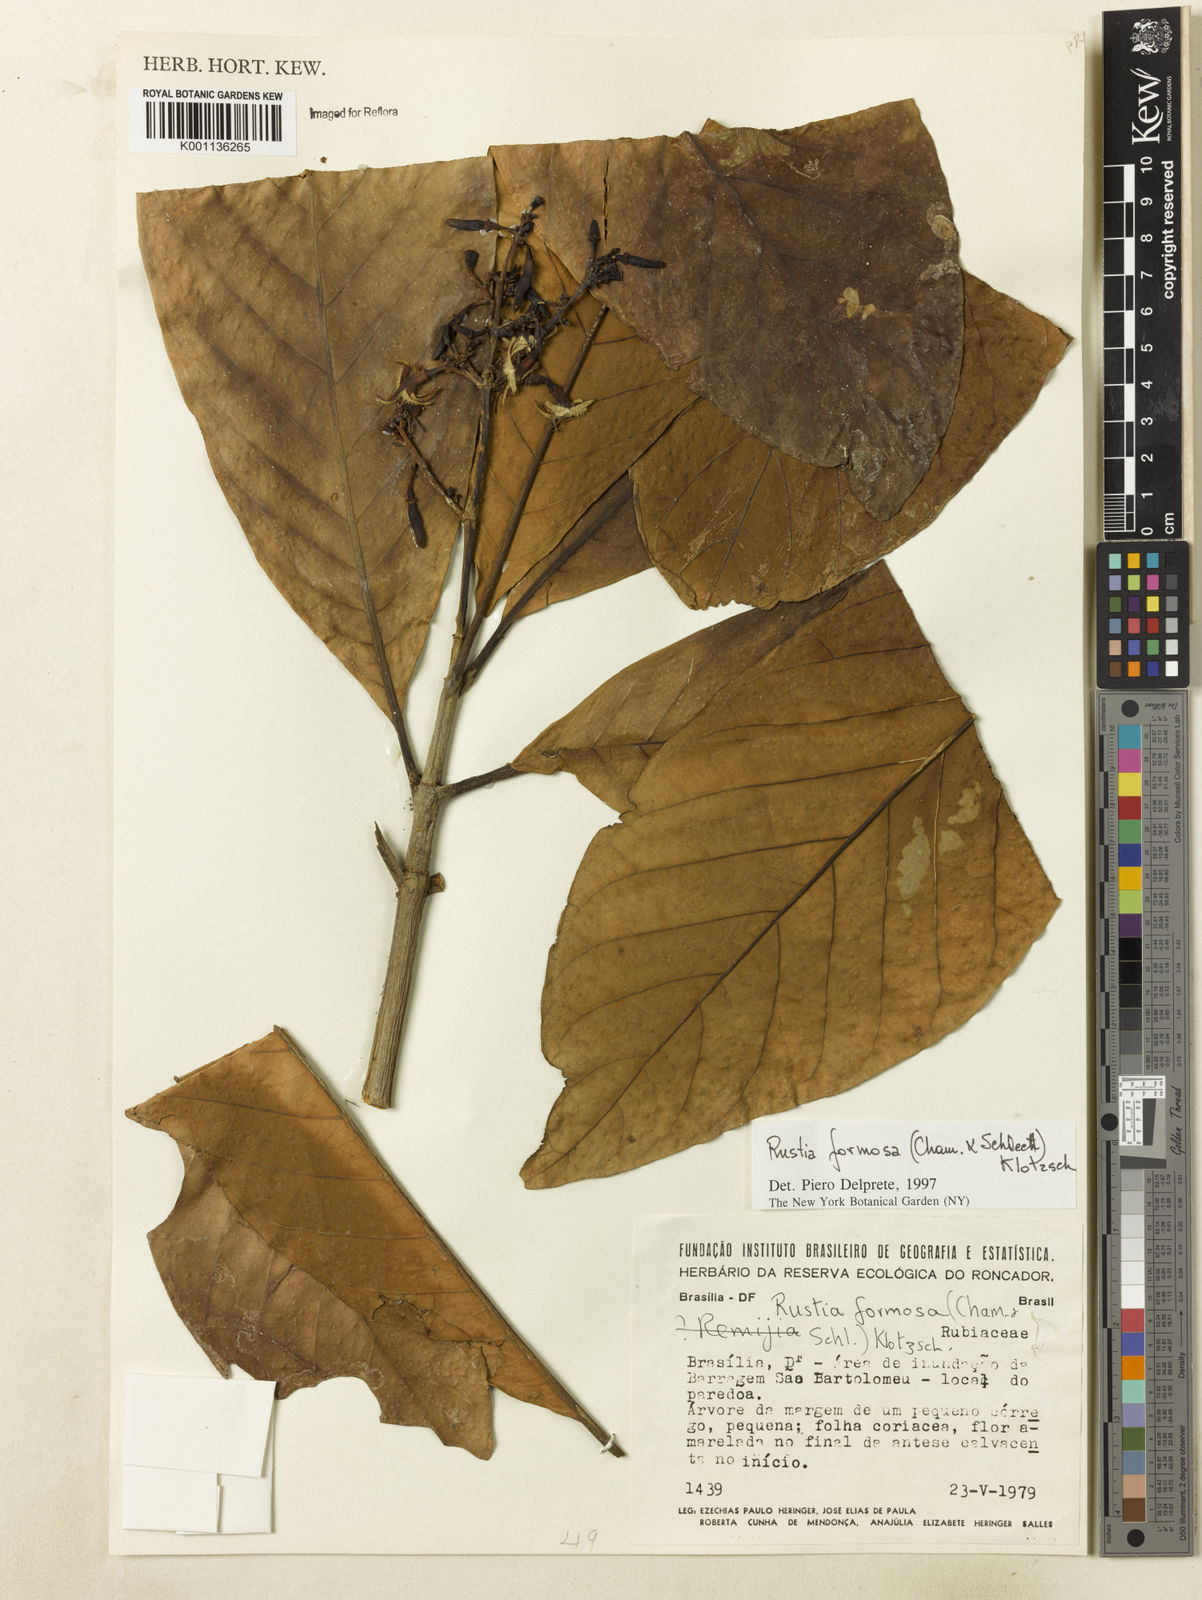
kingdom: Plantae
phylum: Tracheophyta
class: Magnoliopsida
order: Gentianales
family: Rubiaceae
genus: Rustia
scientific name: Rustia formosa
